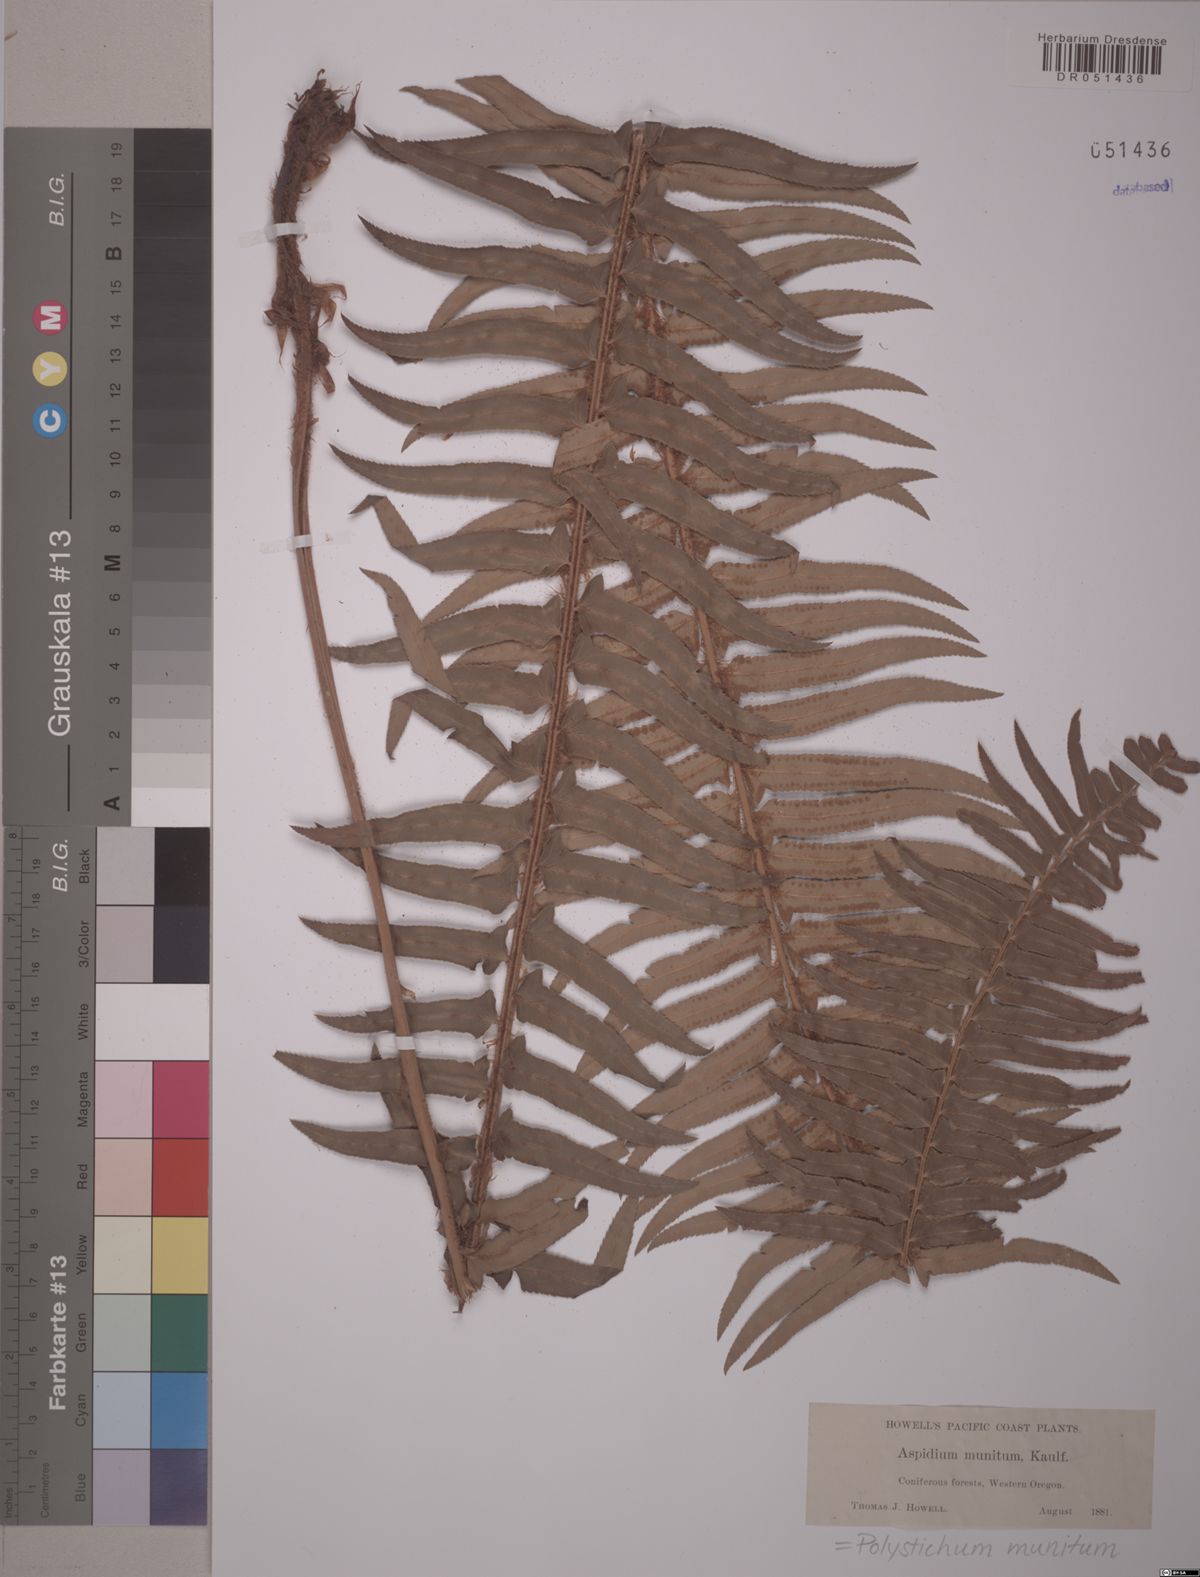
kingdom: Plantae
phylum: Tracheophyta
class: Polypodiopsida
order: Polypodiales
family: Dryopteridaceae
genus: Polystichum
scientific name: Polystichum munitum
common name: Western sword-fern
